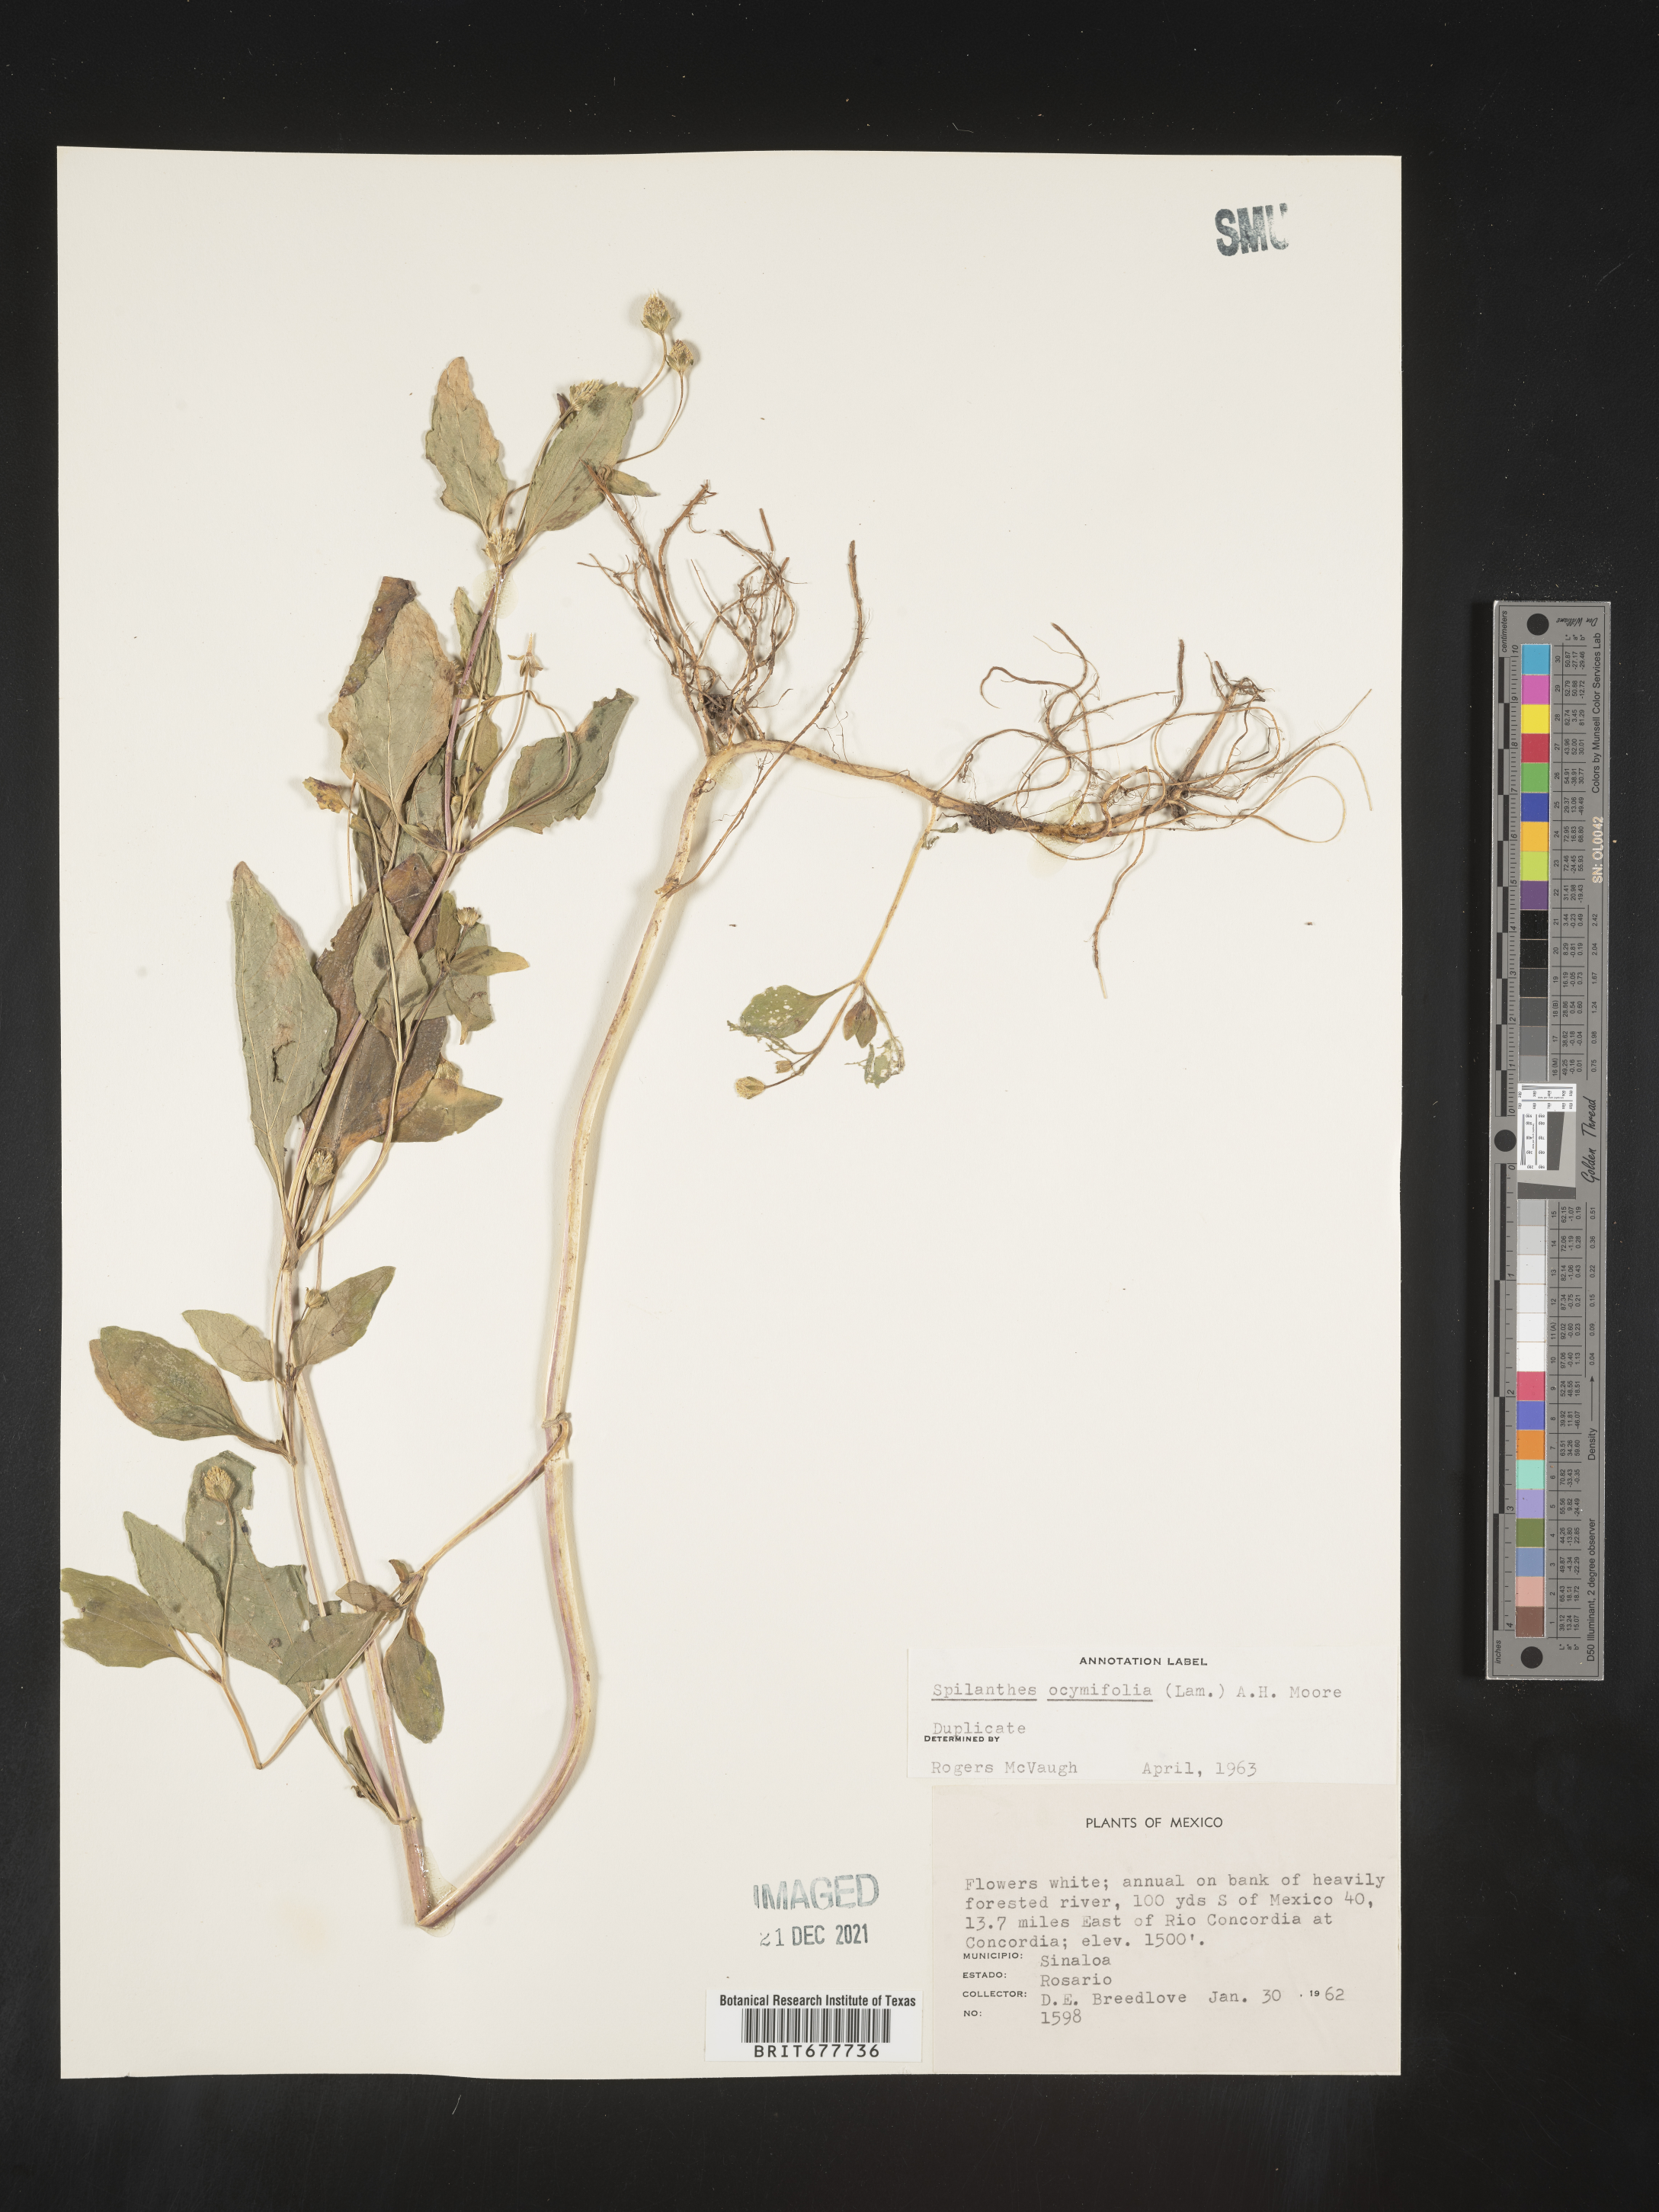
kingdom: Plantae
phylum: Tracheophyta
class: Magnoliopsida
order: Asterales
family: Asteraceae
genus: Spilanthes
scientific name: Spilanthes
